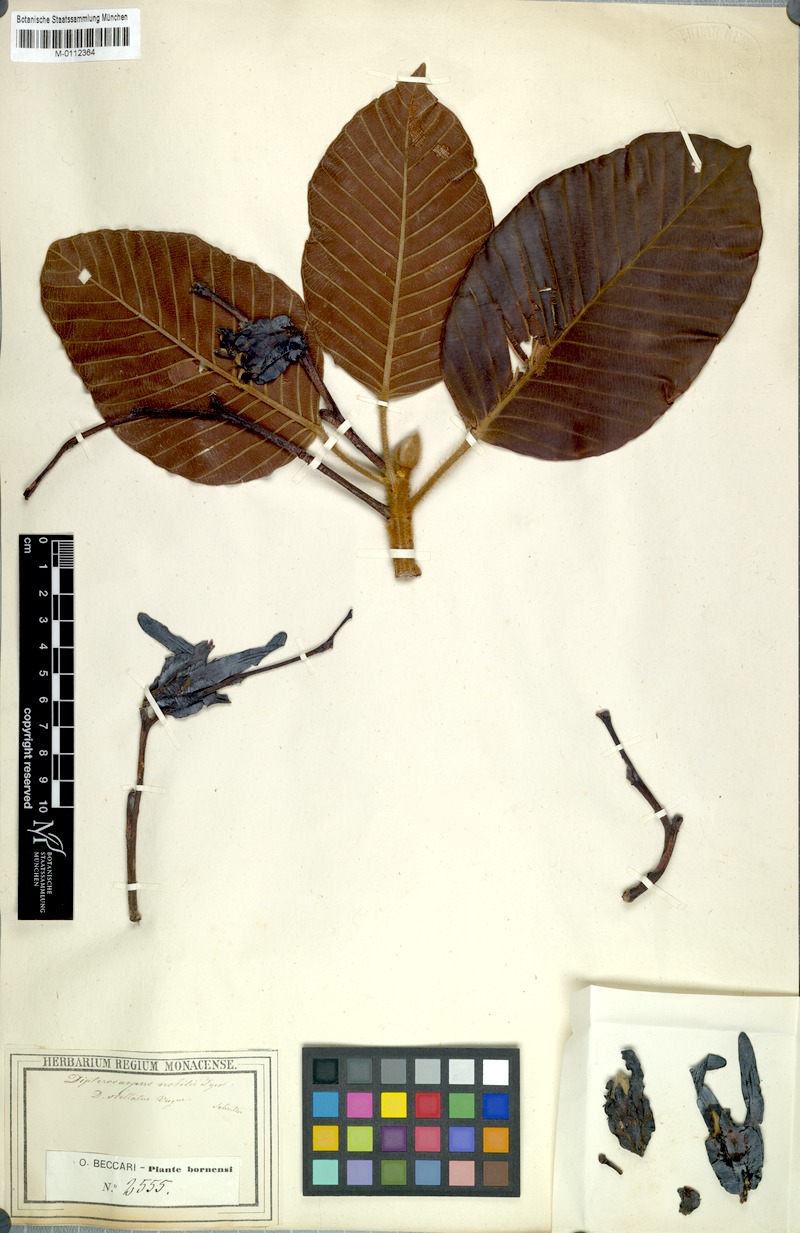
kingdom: Plantae
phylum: Tracheophyta
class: Magnoliopsida
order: Malvales
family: Dipterocarpaceae
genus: Dipterocarpus
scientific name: Dipterocarpus stellatus
